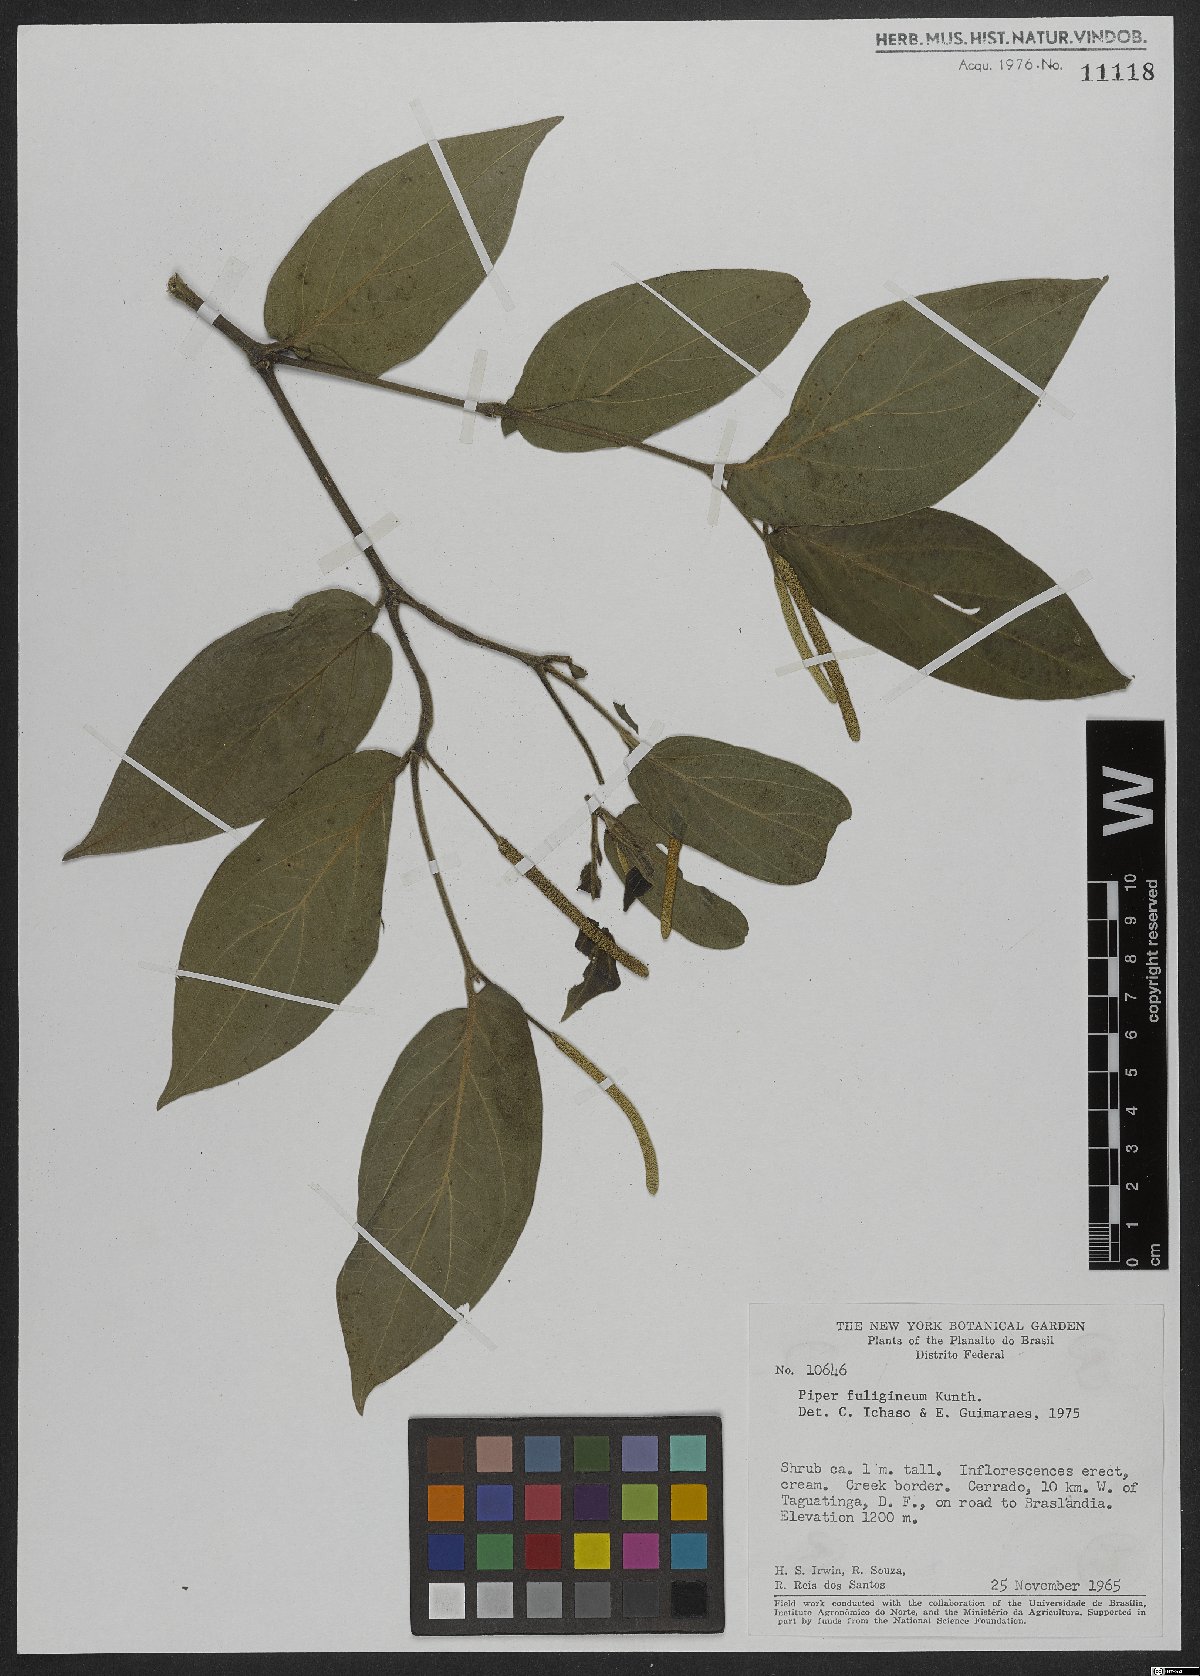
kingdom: Plantae
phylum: Tracheophyta
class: Magnoliopsida
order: Piperales
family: Piperaceae
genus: Piper
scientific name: Piper fuligineum
